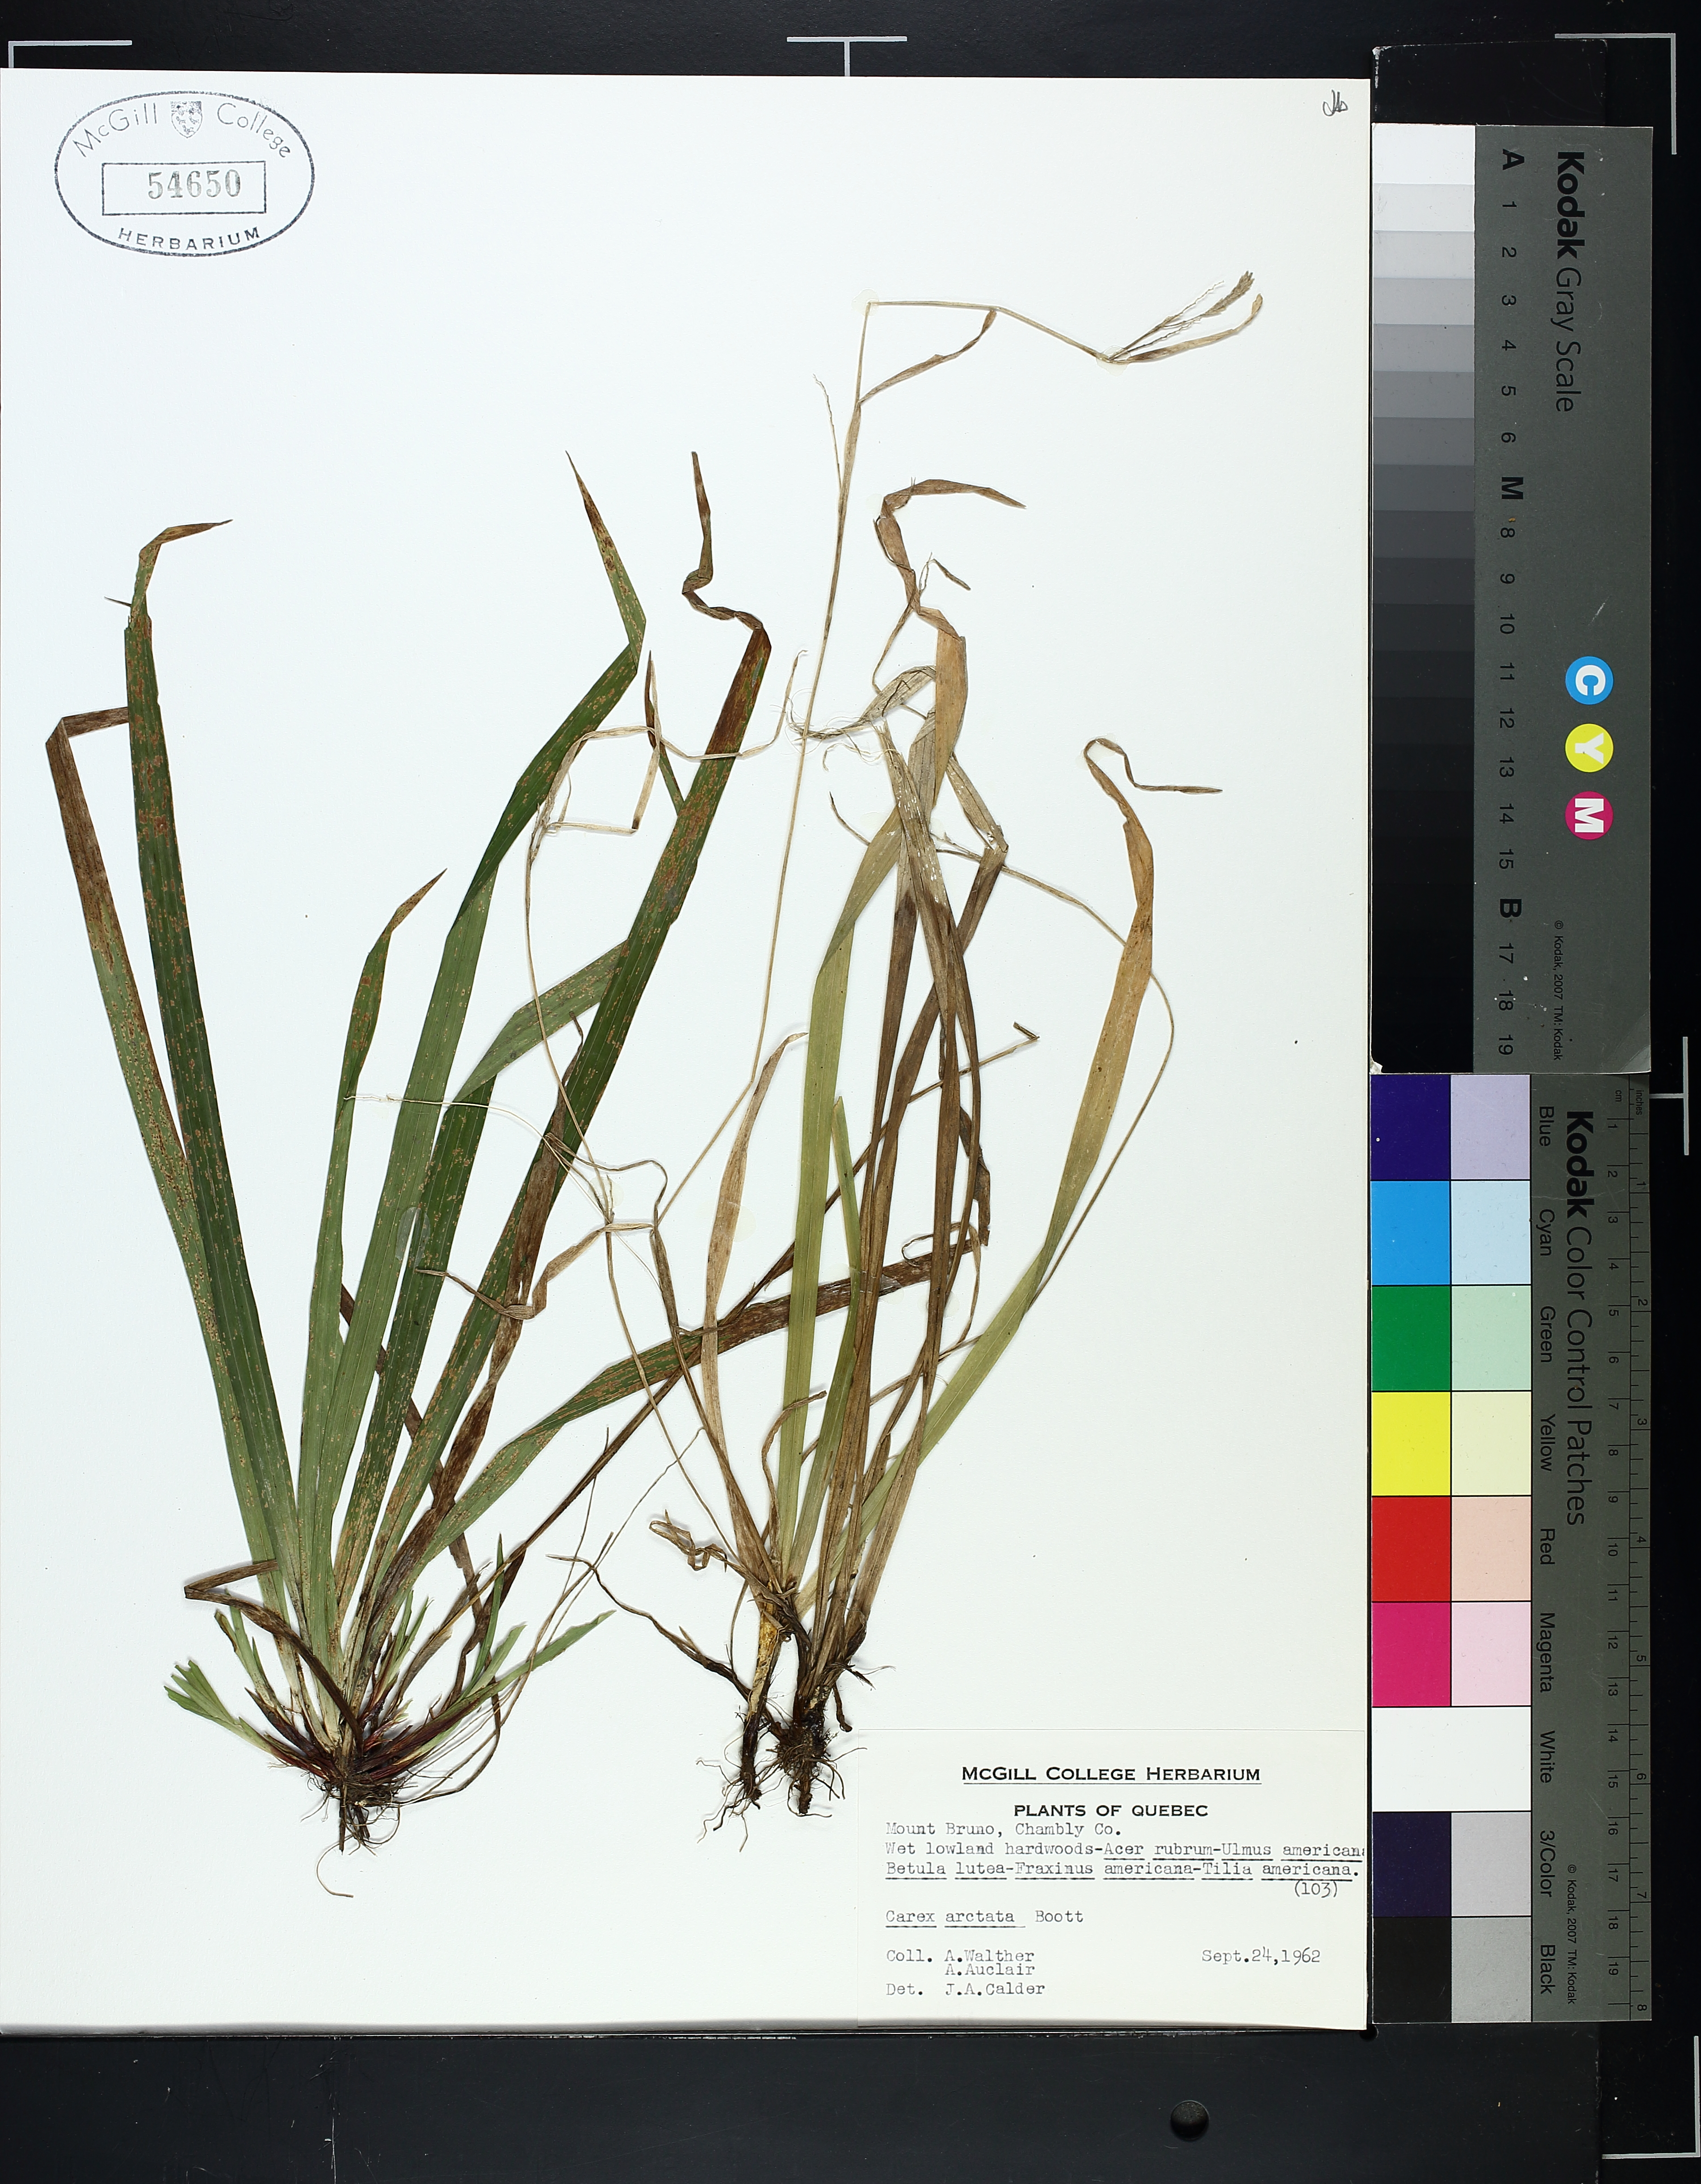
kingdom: Plantae
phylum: Tracheophyta
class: Liliopsida
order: Poales
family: Cyperaceae
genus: Carex
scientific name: Carex arctata
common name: Black sedge
